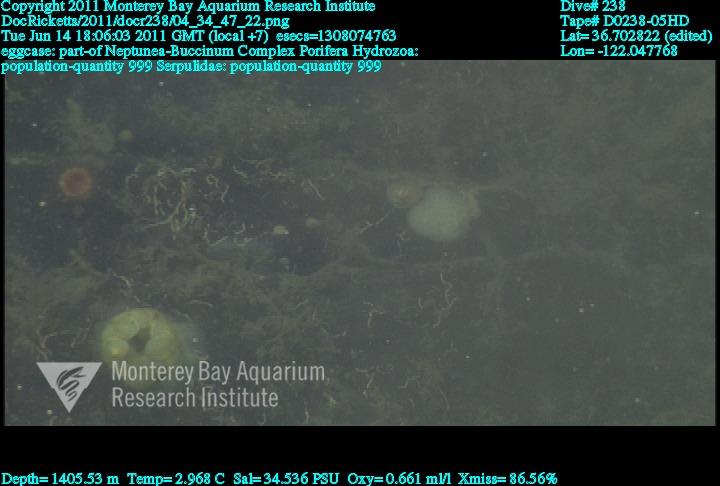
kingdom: Animalia
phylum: Porifera
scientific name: Porifera
